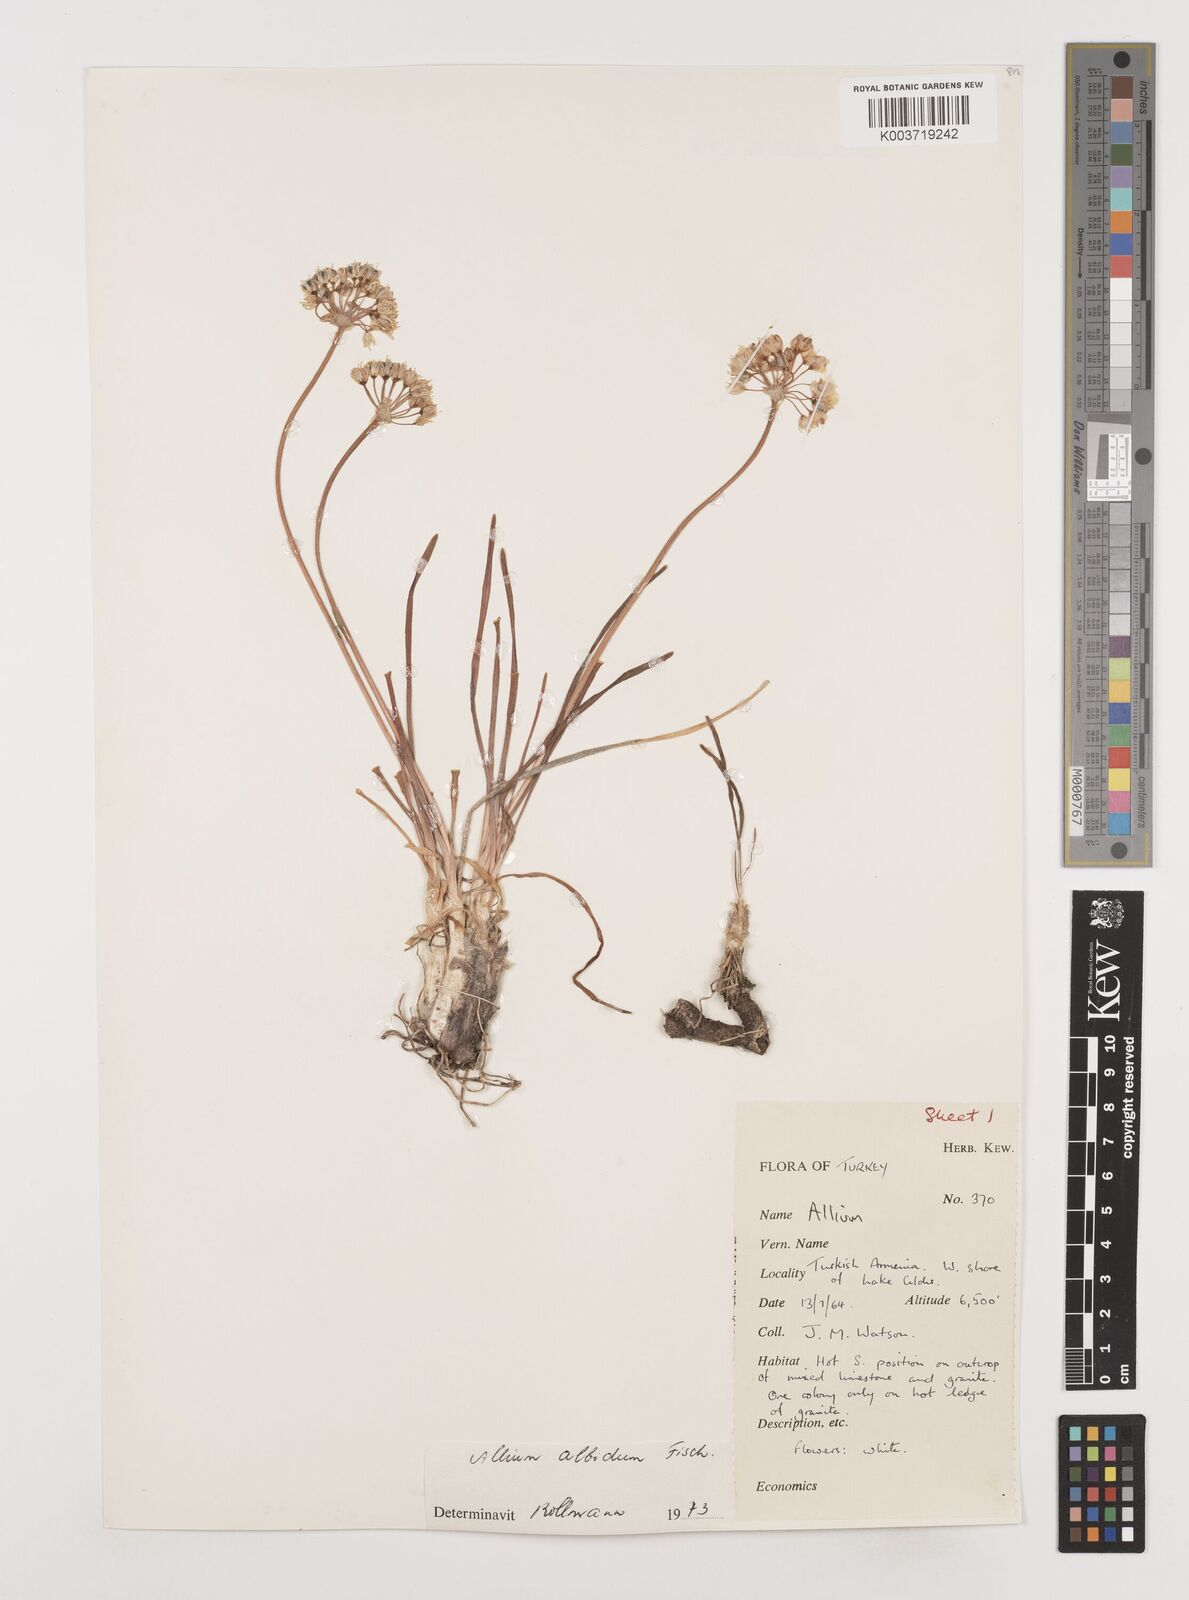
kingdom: Plantae
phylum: Tracheophyta
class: Liliopsida
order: Asparagales
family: Amaryllidaceae
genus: Allium
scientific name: Allium denudatum
